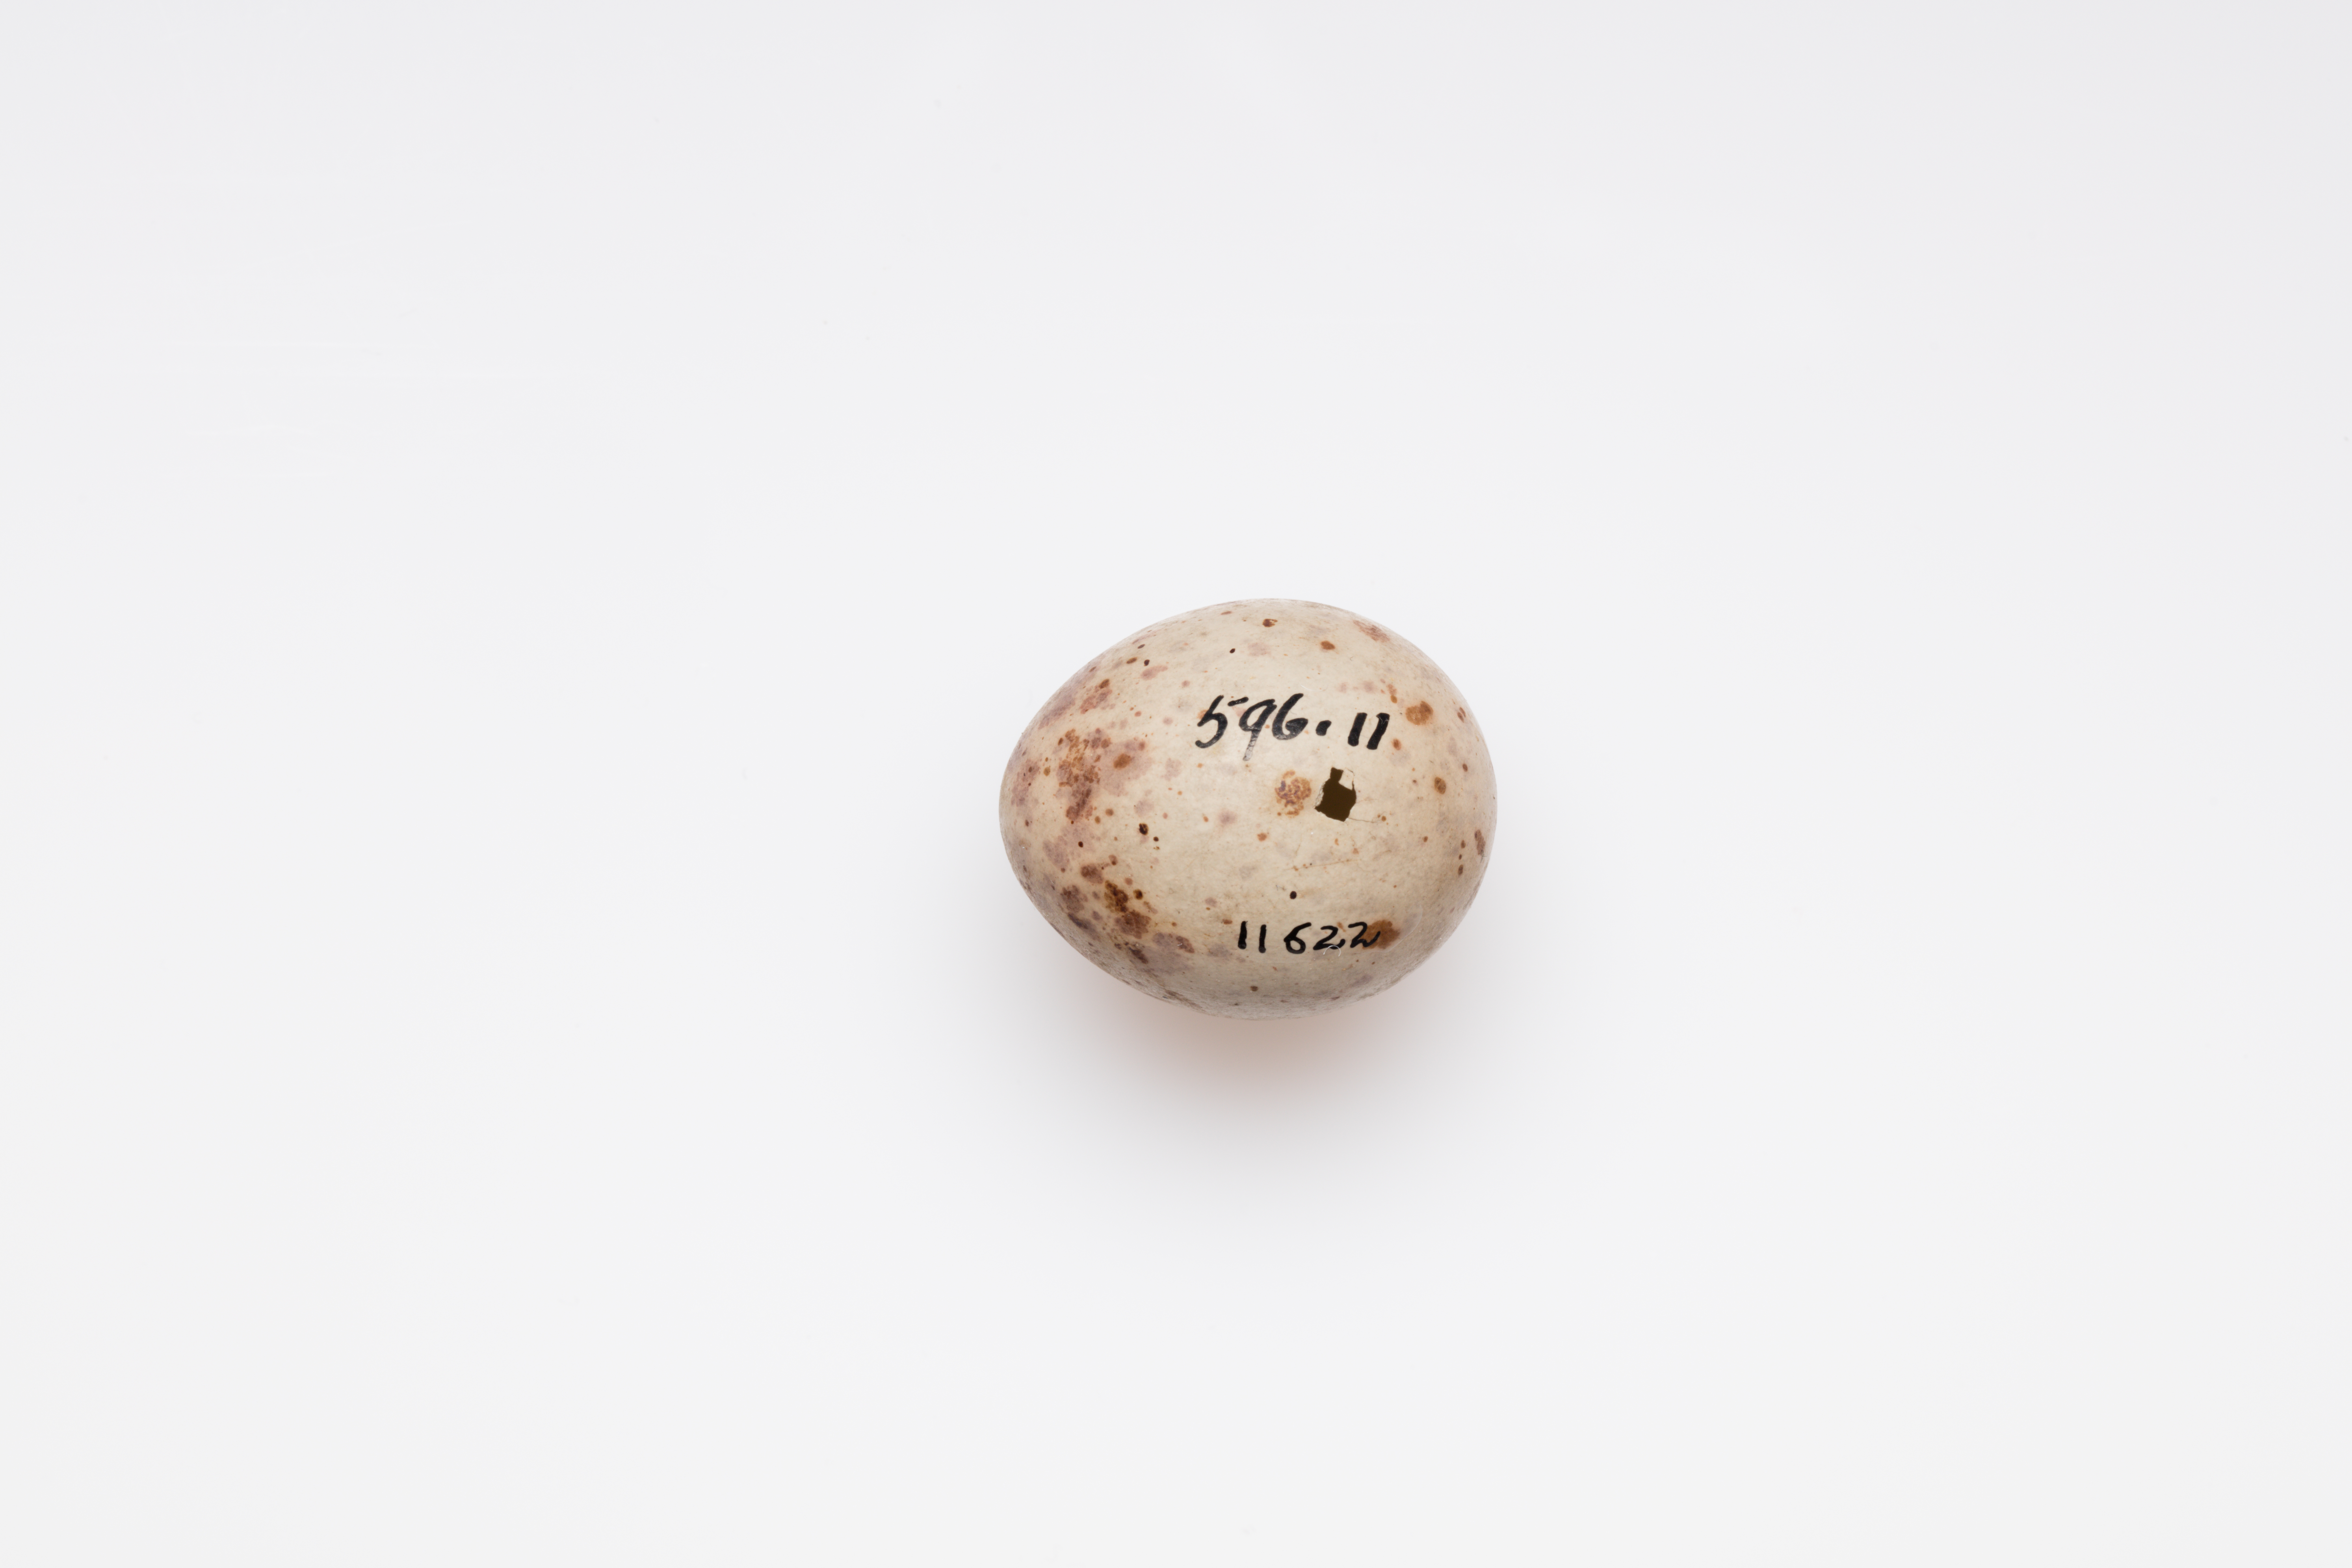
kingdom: Animalia
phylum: Chordata
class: Aves
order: Passeriformes
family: Turdidae
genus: Turdus
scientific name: Turdus viscivorus
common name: Mistle thrush
